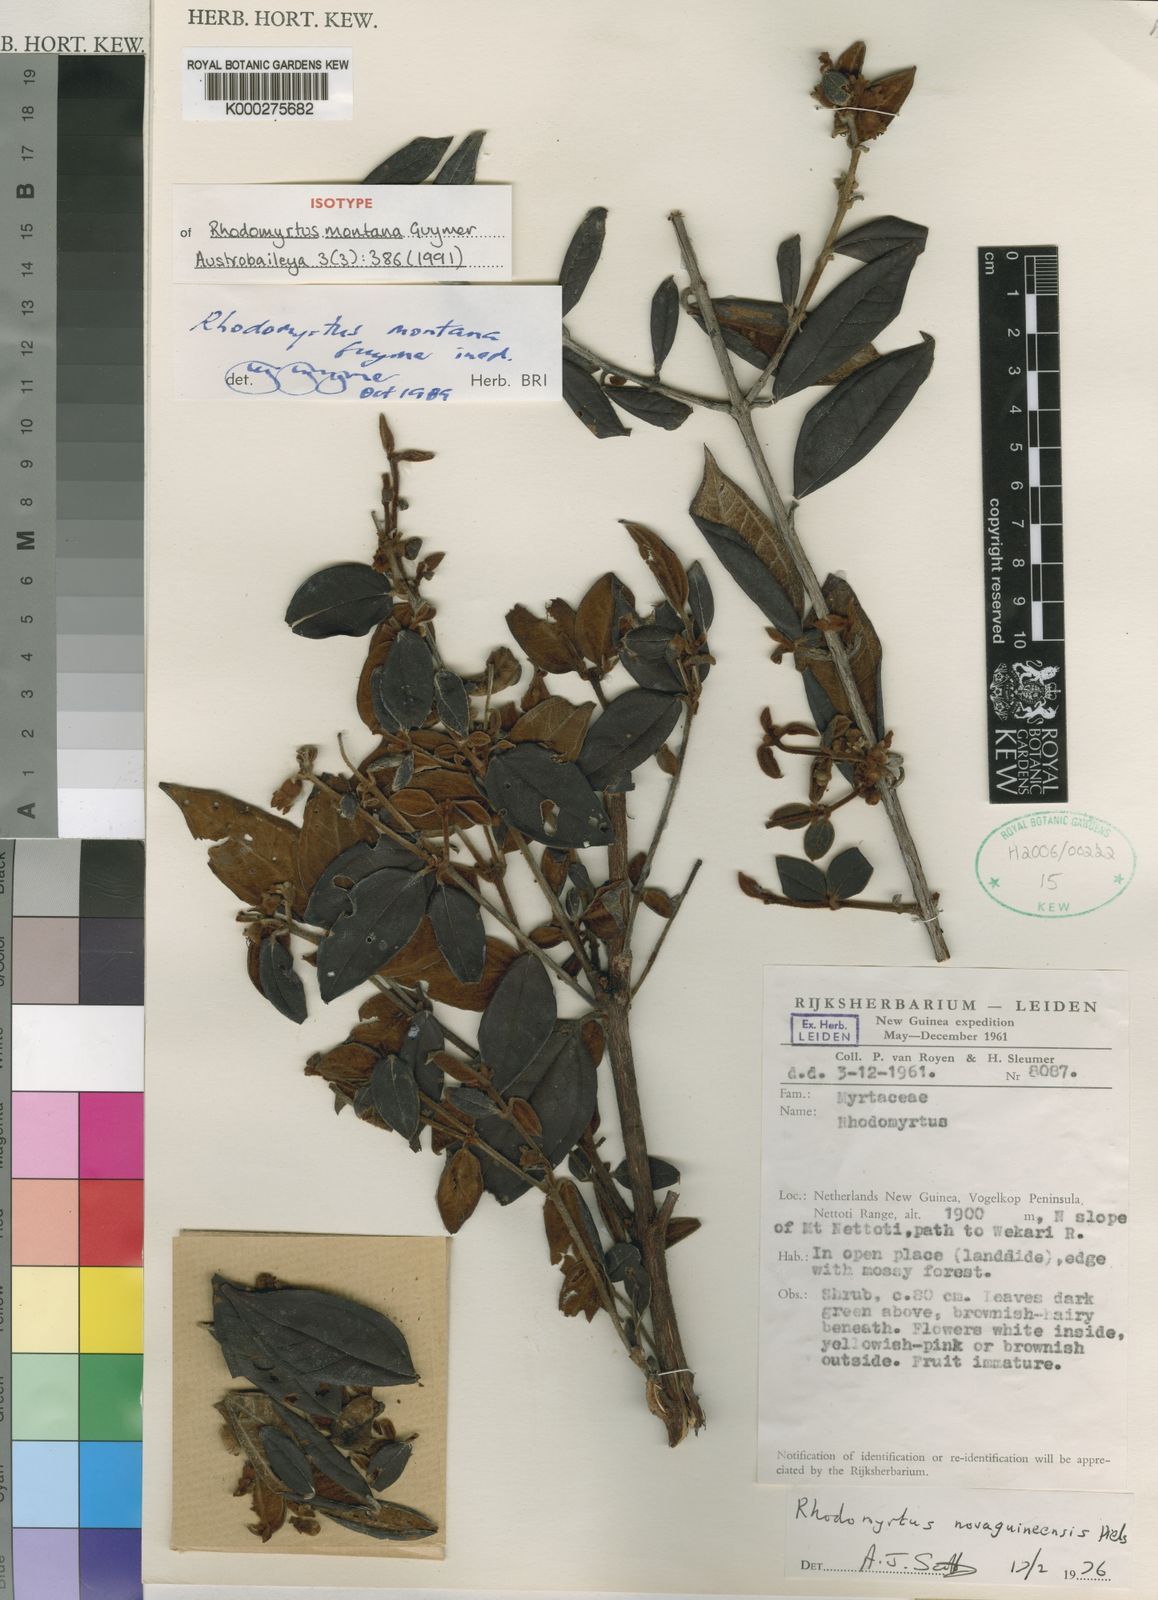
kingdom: Plantae
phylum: Tracheophyta
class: Magnoliopsida
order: Myrtales
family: Myrtaceae
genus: Rhodomyrtus
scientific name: Rhodomyrtus montana
